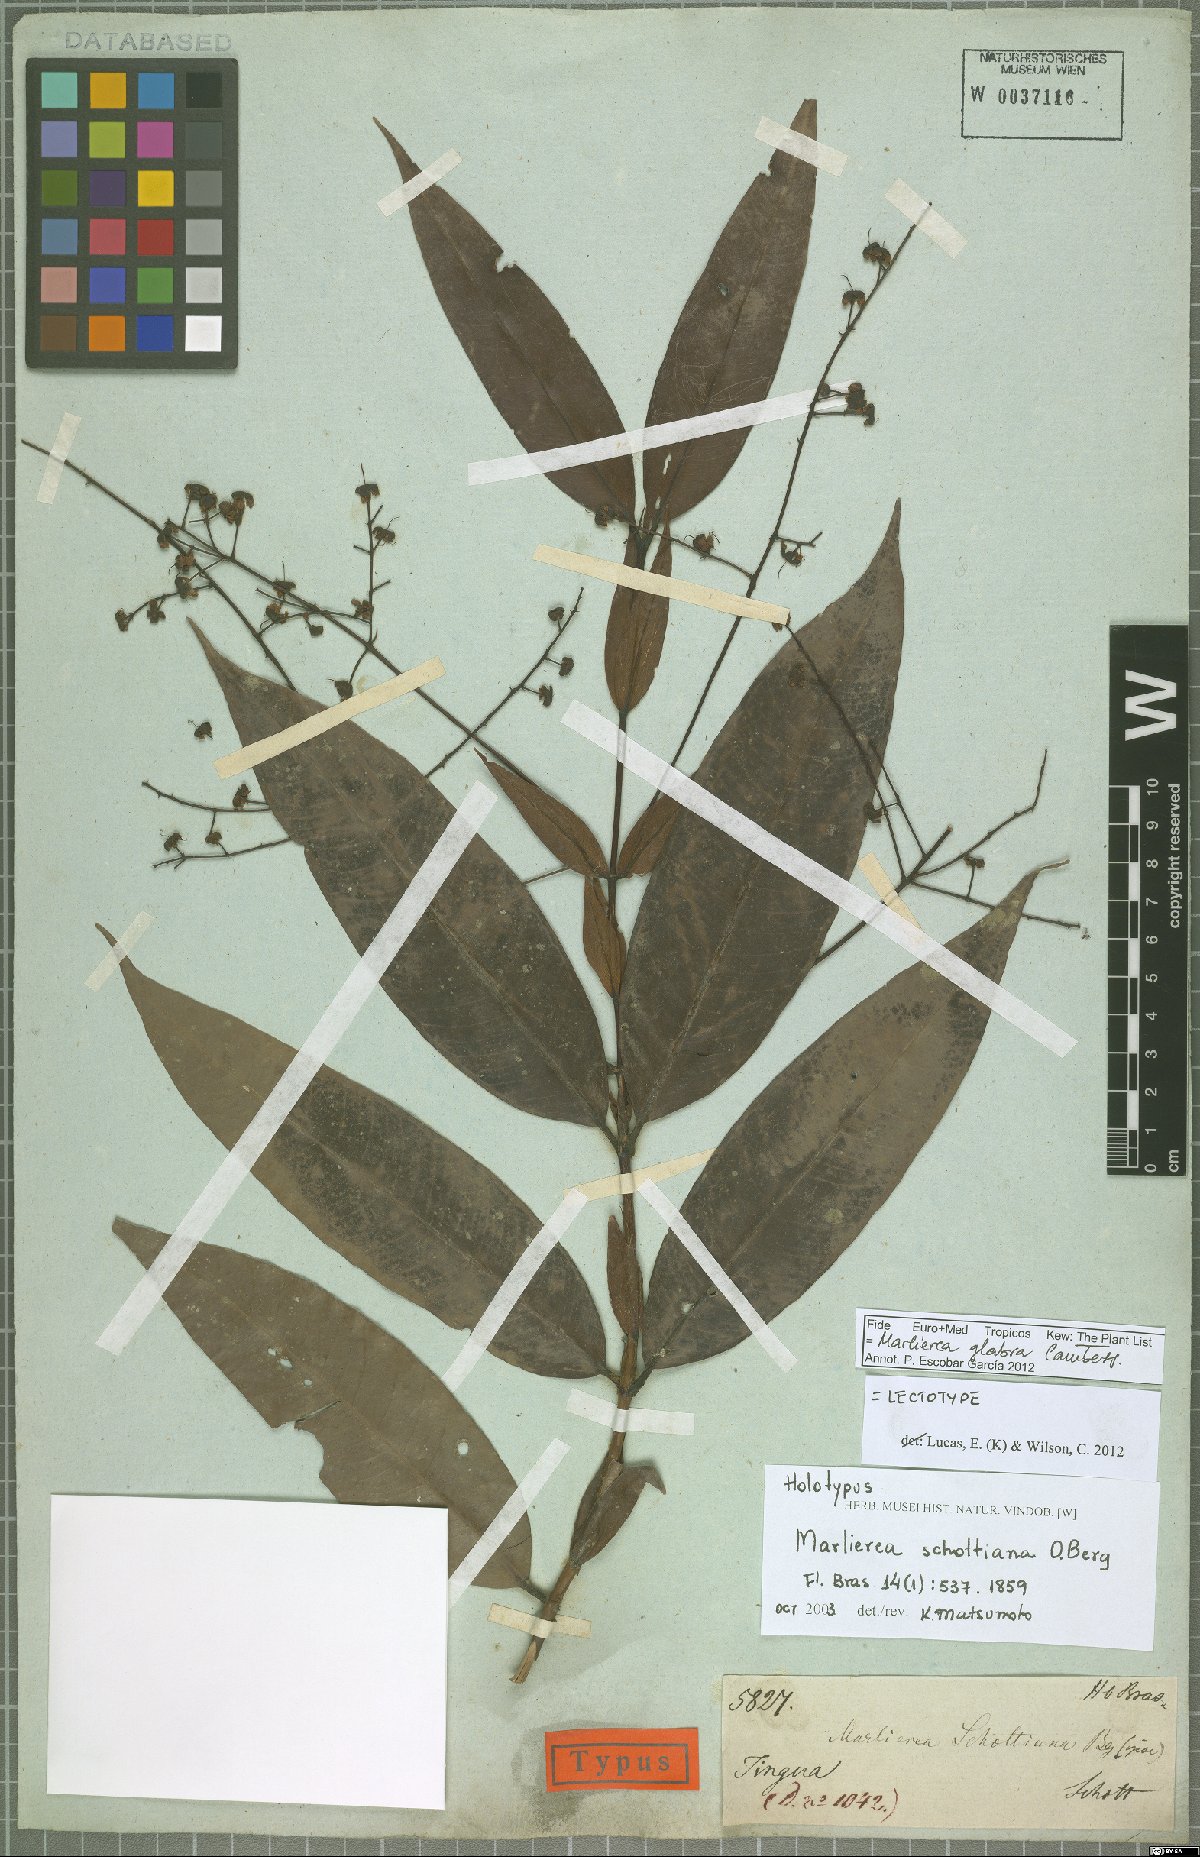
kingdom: Plantae
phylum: Tracheophyta
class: Magnoliopsida
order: Myrtales
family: Myrtaceae
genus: Myrcia
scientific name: Myrcia neoglabra
